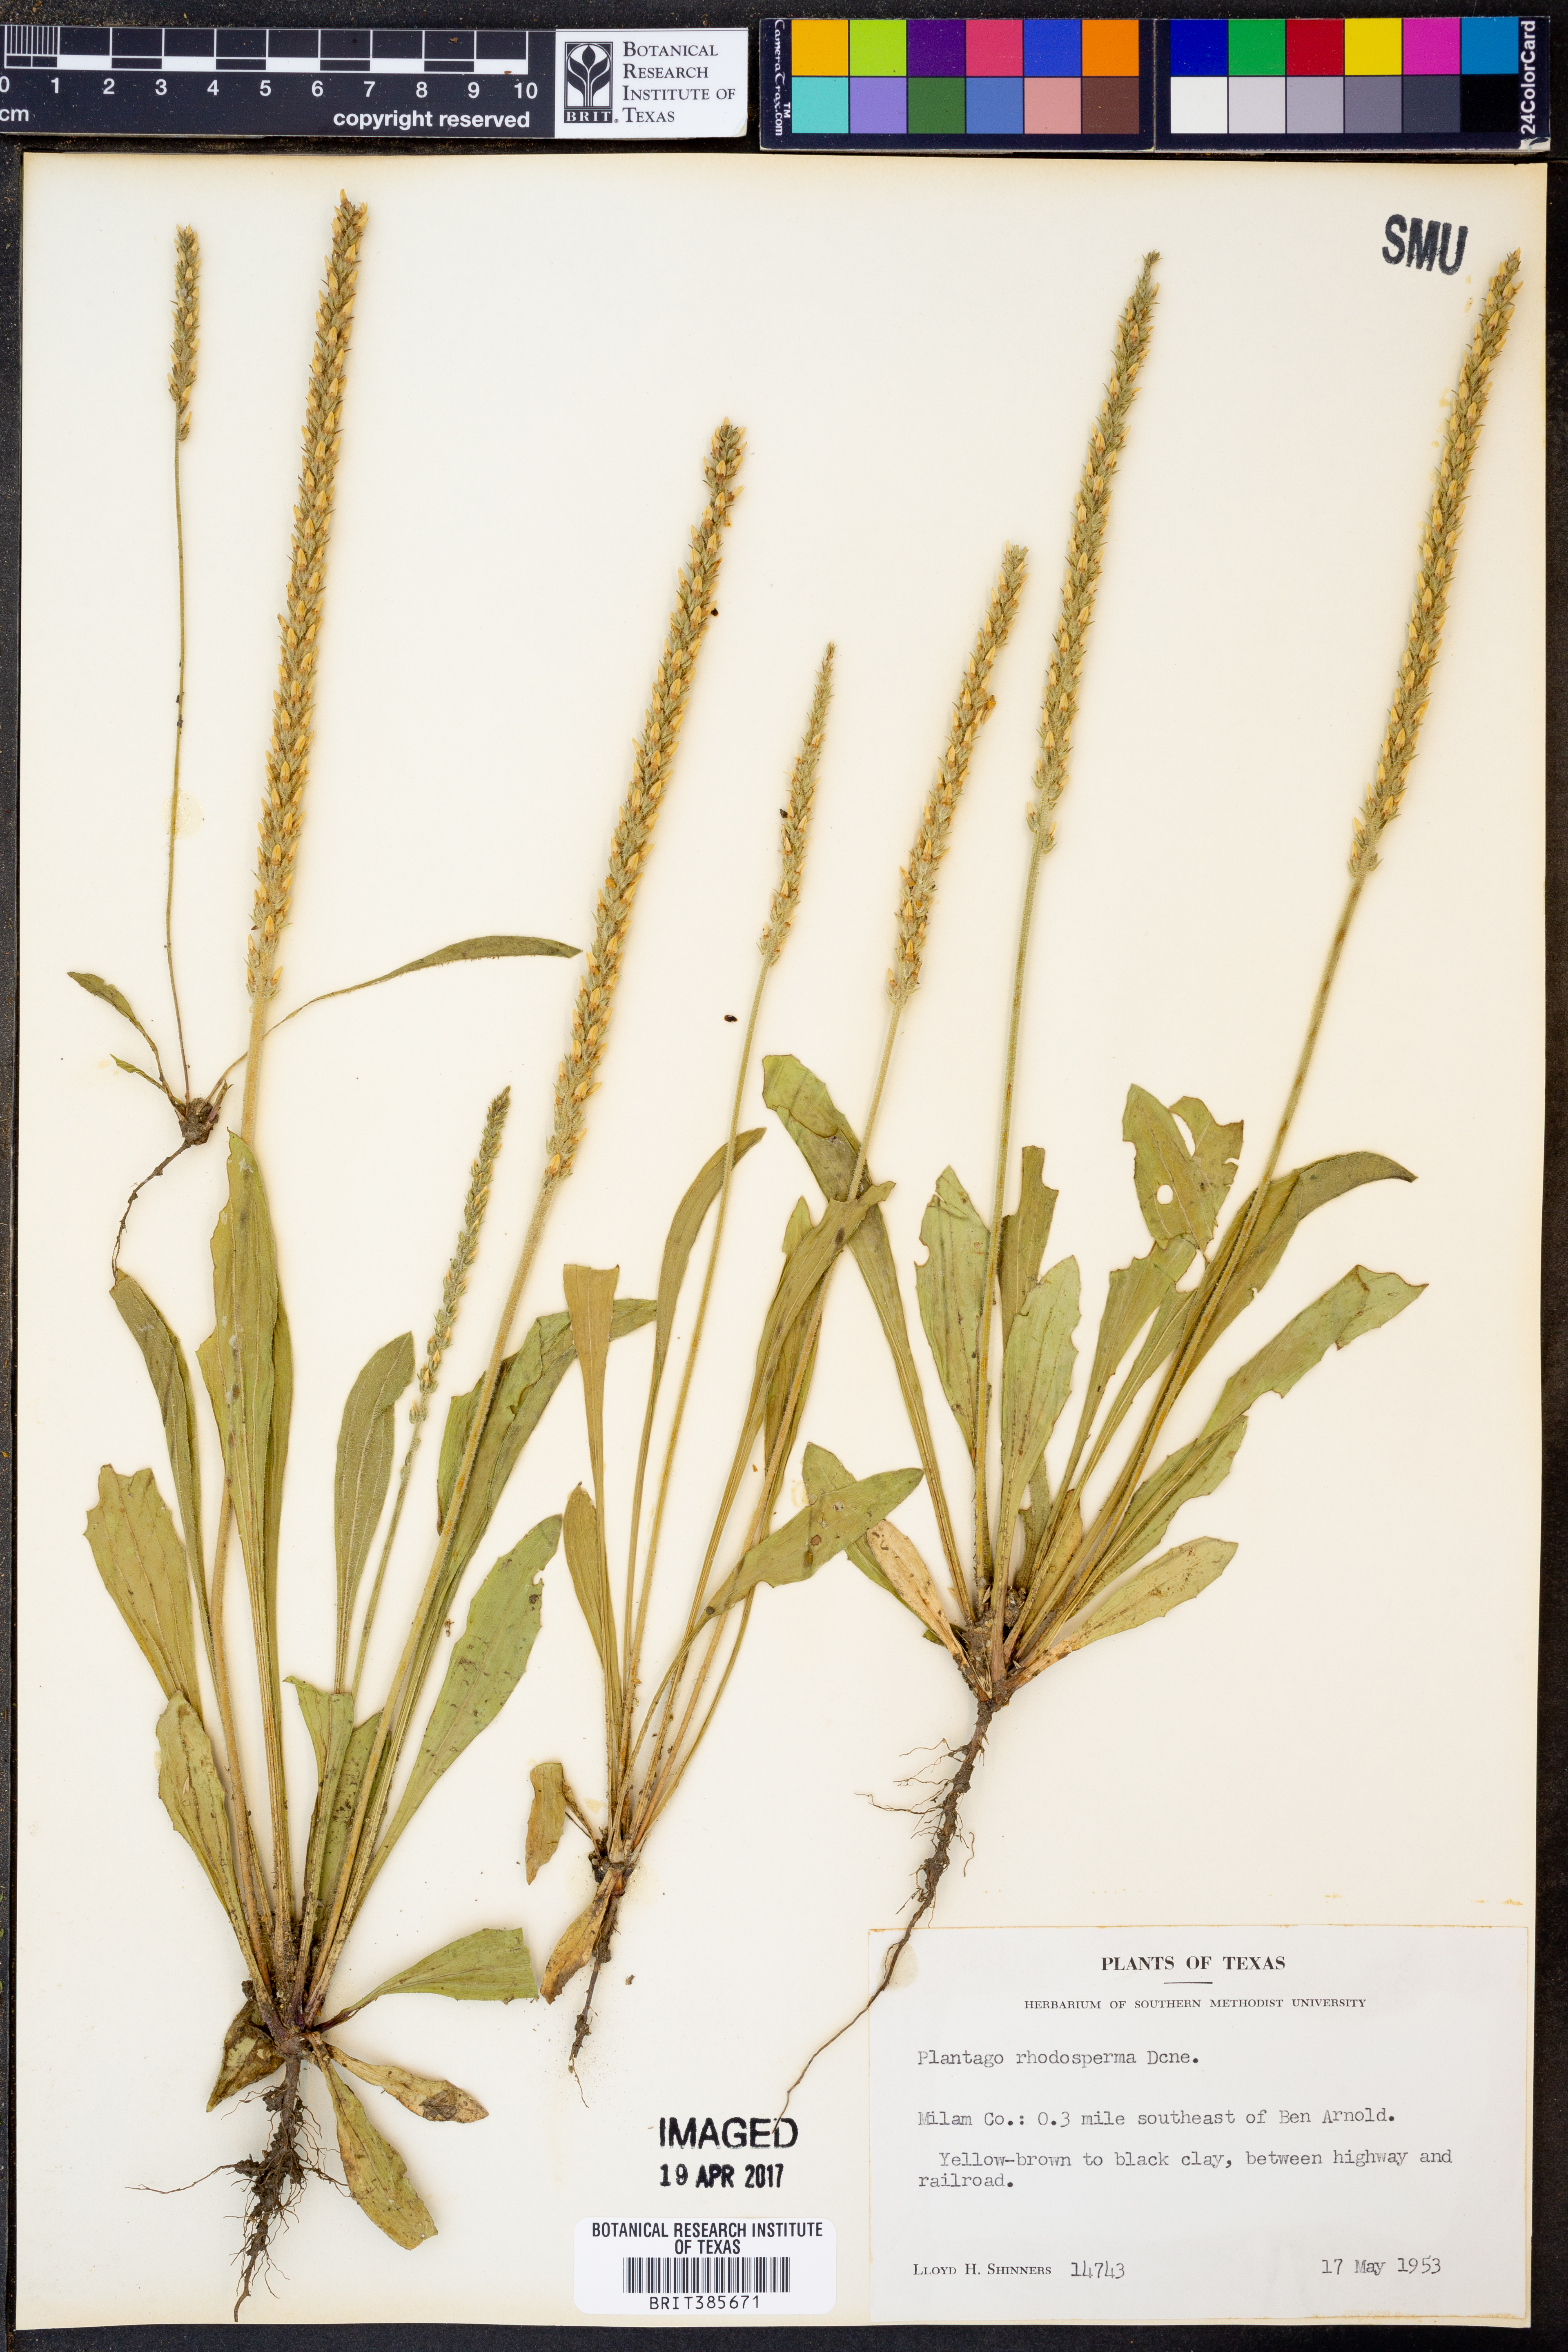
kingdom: Plantae
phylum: Tracheophyta
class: Magnoliopsida
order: Lamiales
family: Plantaginaceae
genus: Plantago
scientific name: Plantago rhodosperma
